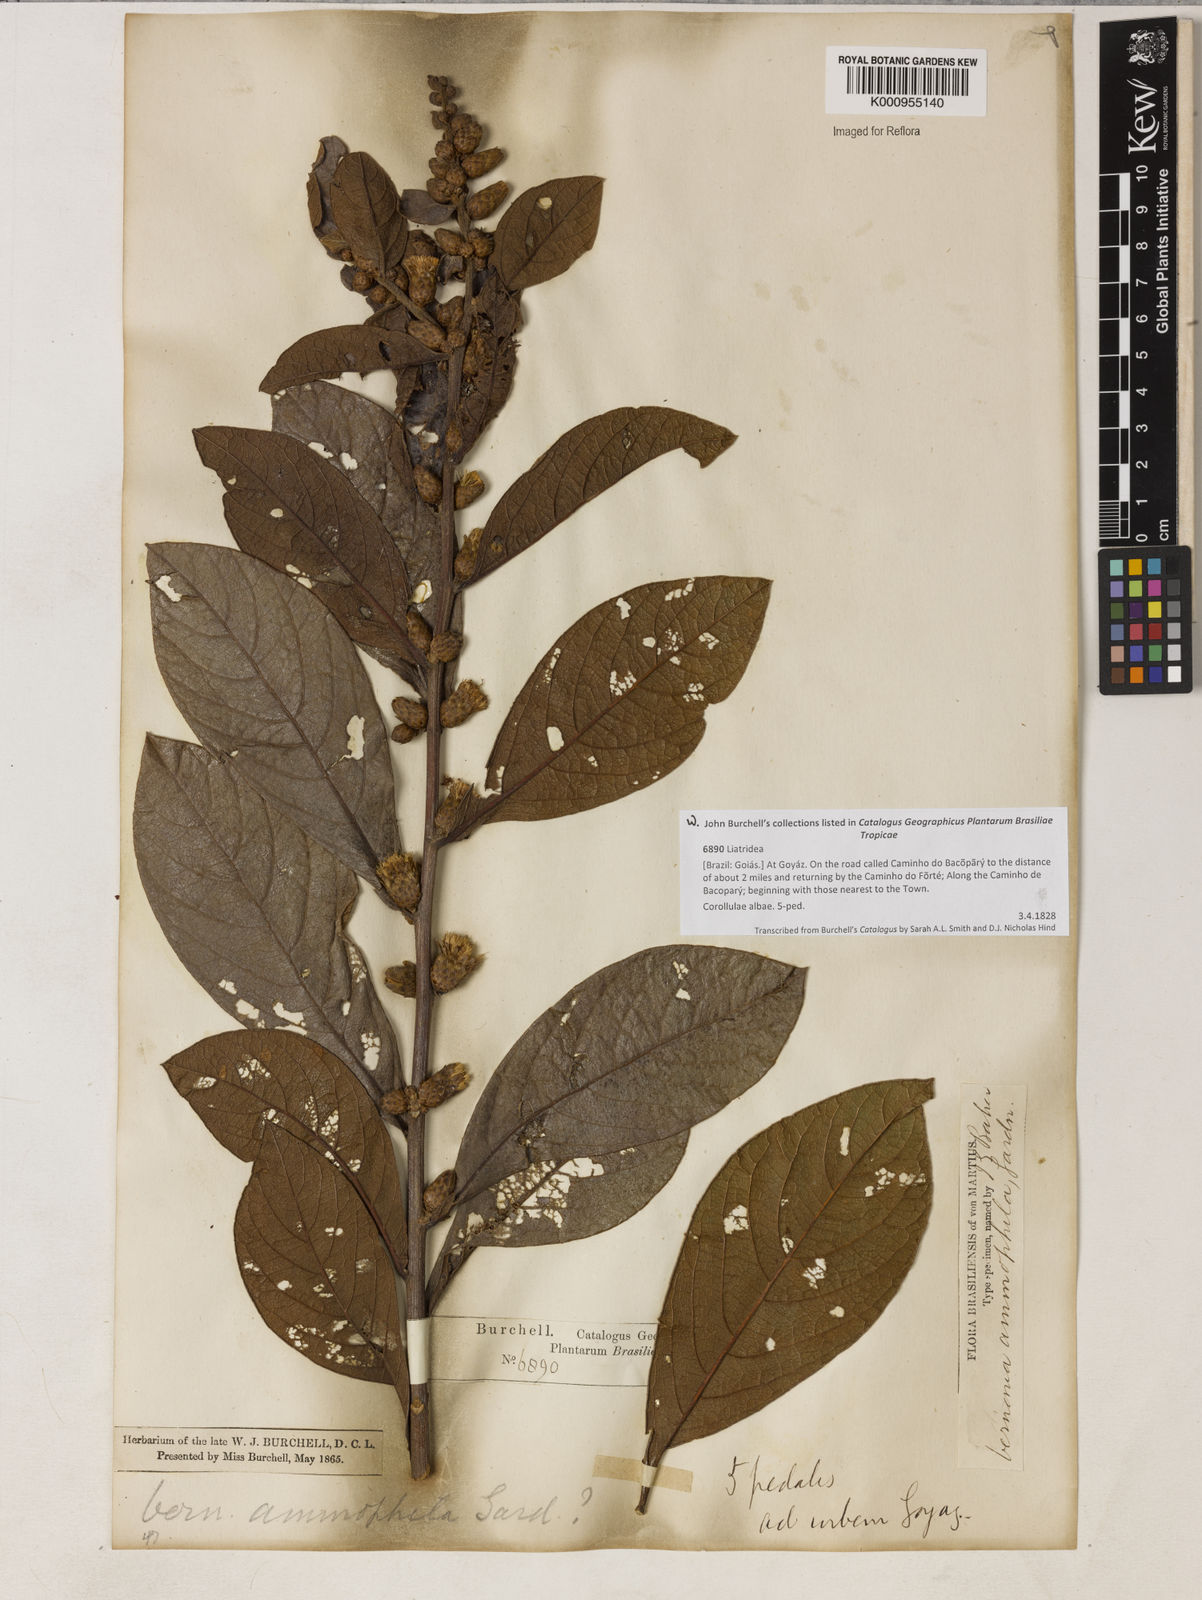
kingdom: Plantae
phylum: Tracheophyta
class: Magnoliopsida
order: Asterales
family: Asteraceae
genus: Lessingianthus
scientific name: Lessingianthus ammophilus
